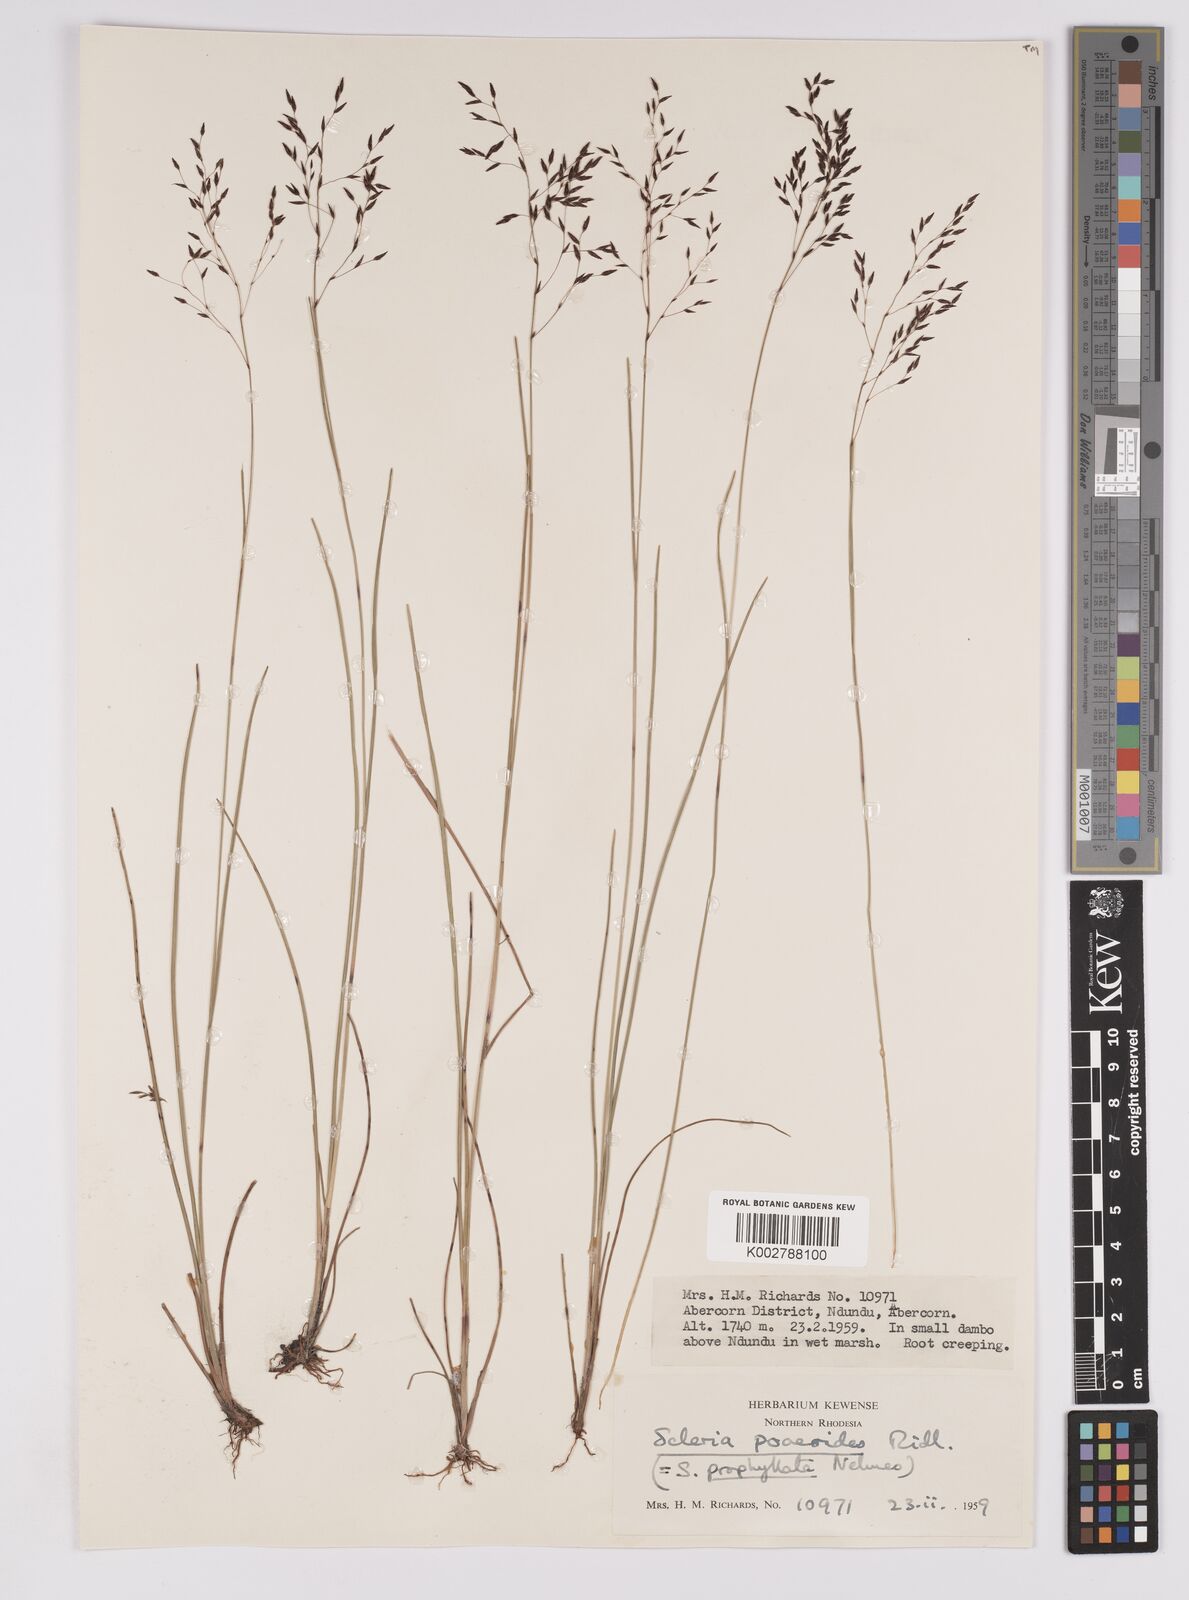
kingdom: Plantae
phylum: Tracheophyta
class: Liliopsida
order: Poales
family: Cyperaceae
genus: Scleria
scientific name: Scleria pooides
